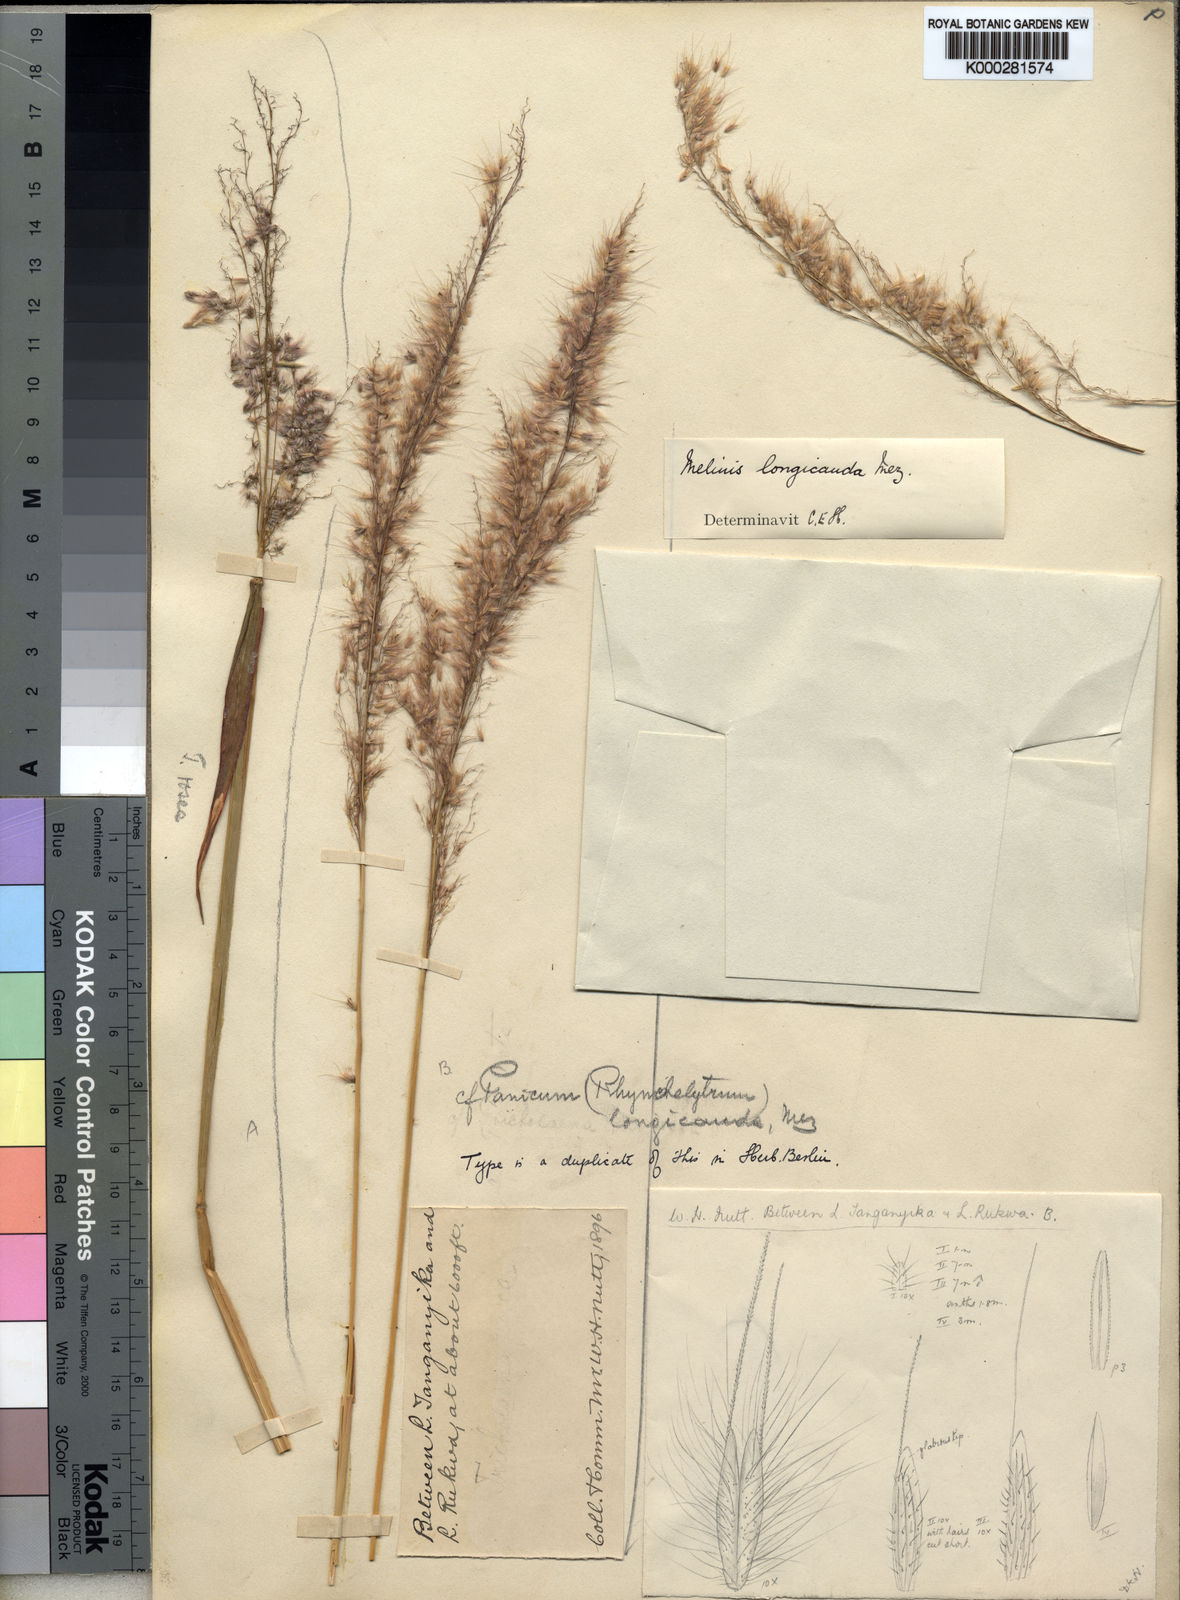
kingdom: Plantae
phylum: Tracheophyta
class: Liliopsida
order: Poales
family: Poaceae
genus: Melinis
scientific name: Melinis ambigua
